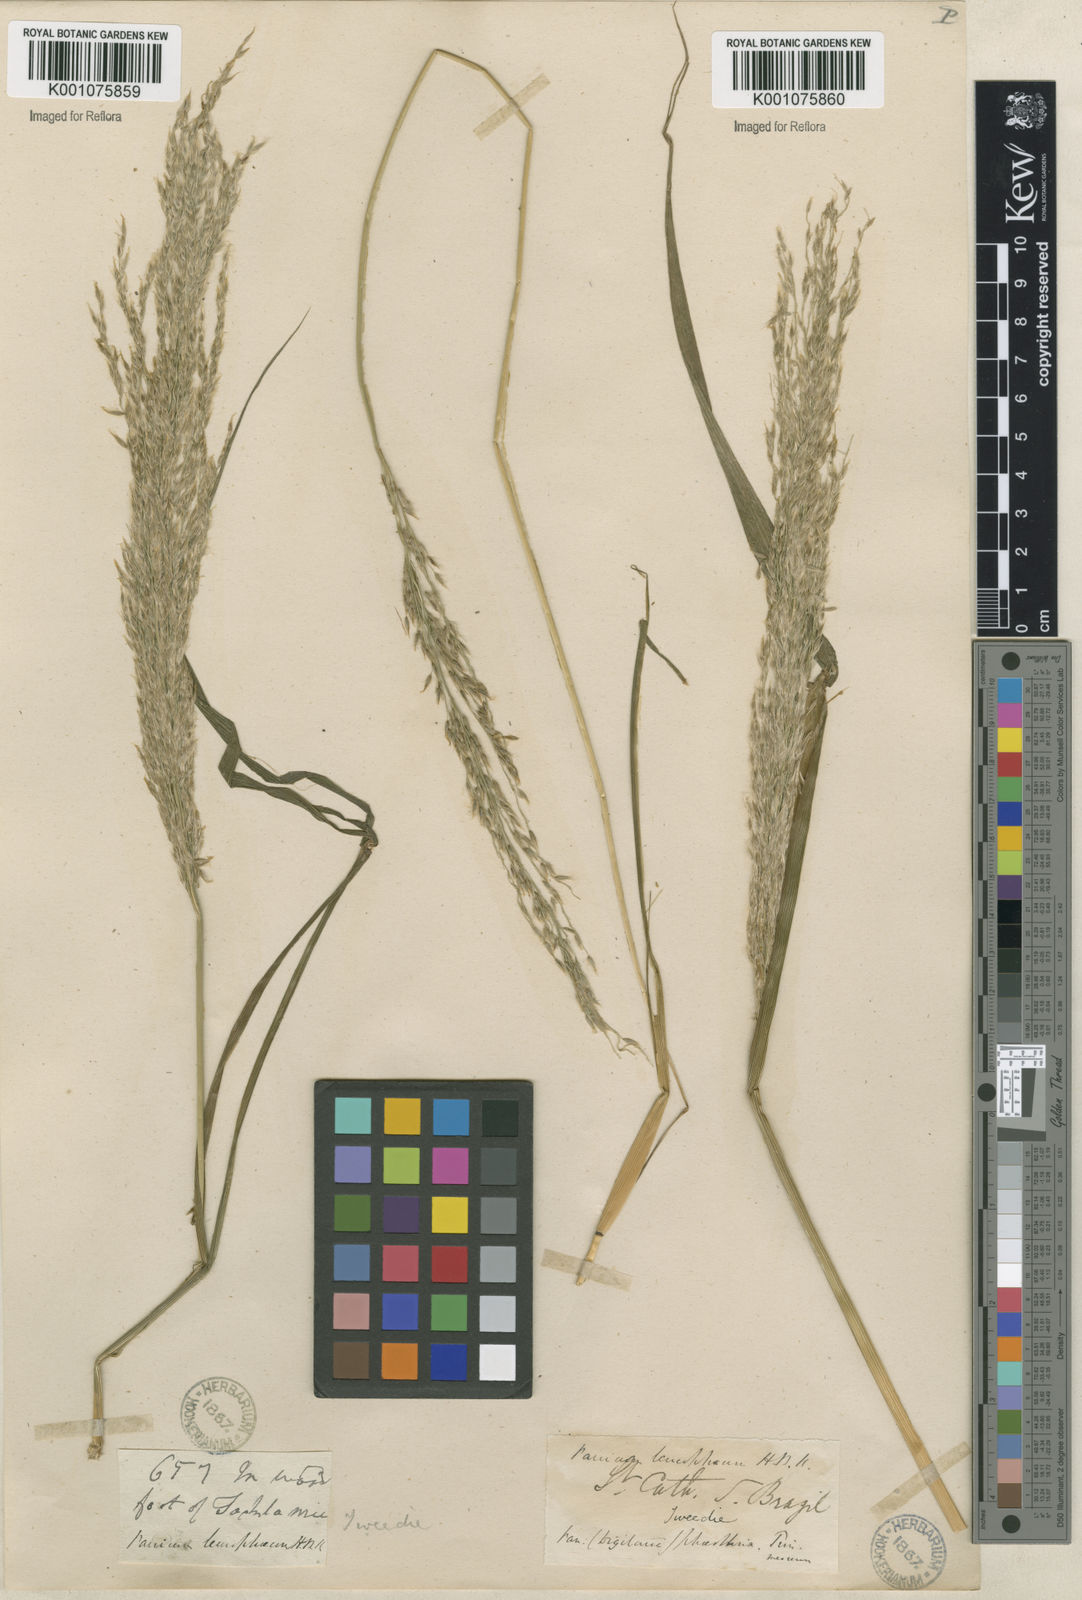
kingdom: Plantae
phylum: Tracheophyta
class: Liliopsida
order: Poales
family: Poaceae
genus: Digitaria
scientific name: Digitaria
